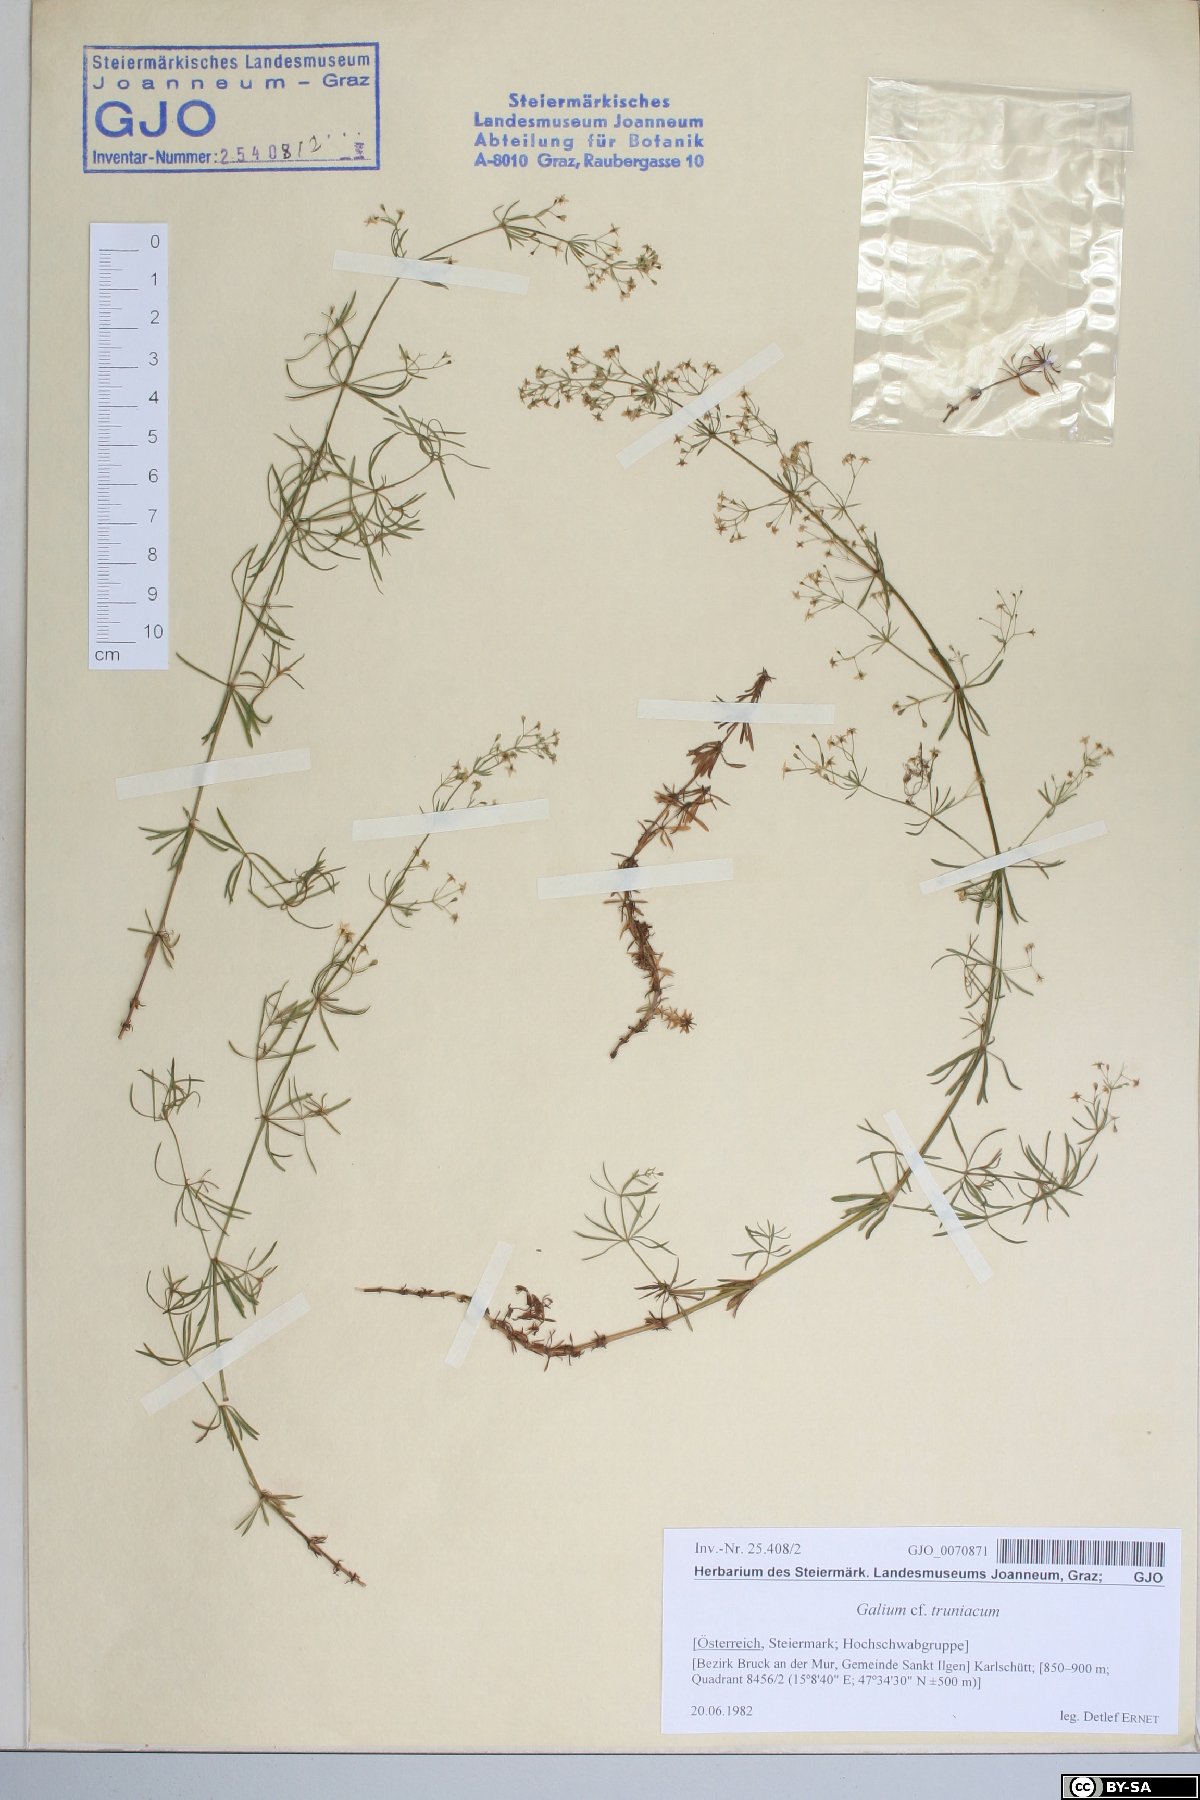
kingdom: Plantae
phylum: Tracheophyta
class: Magnoliopsida
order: Gentianales
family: Rubiaceae
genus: Galium
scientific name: Galium truniacum
